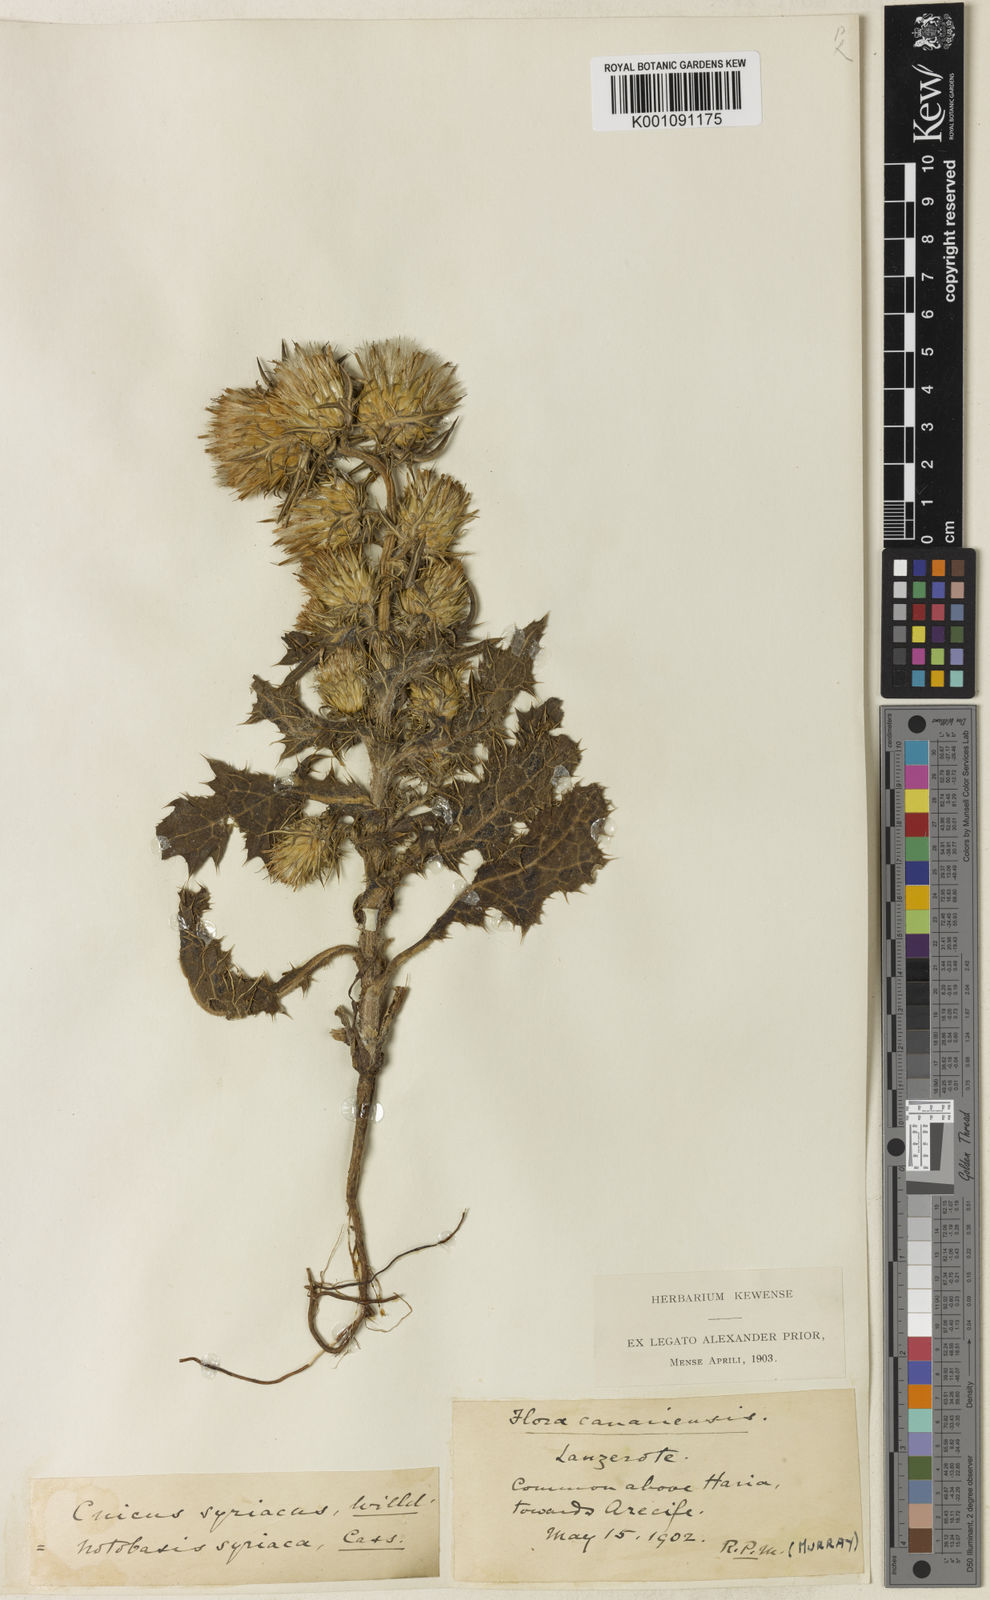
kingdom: Plantae
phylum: Tracheophyta
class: Magnoliopsida
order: Asterales
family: Asteraceae
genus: Notobasis
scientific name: Notobasis syriaca
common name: Syrian thistle
